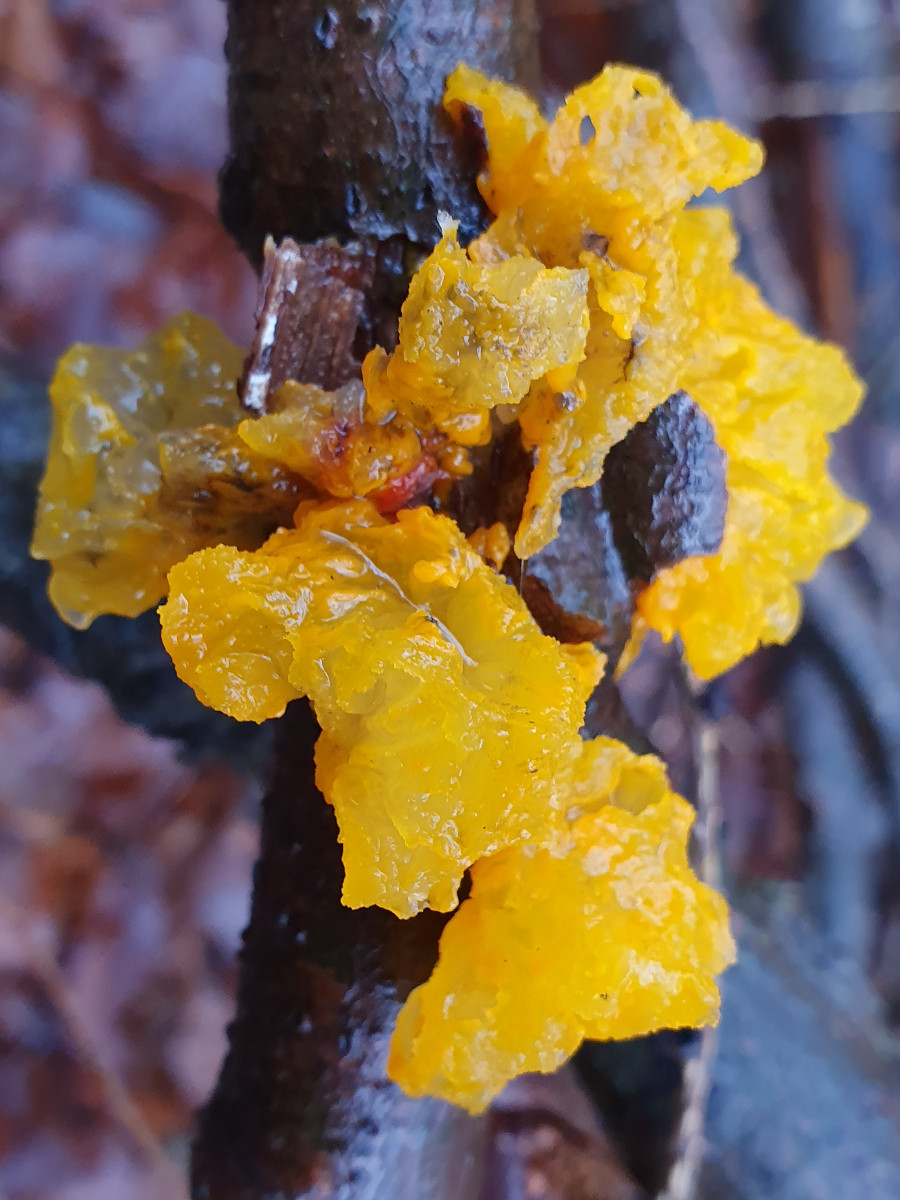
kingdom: Fungi
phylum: Basidiomycota
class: Tremellomycetes
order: Tremellales
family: Tremellaceae
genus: Tremella
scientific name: Tremella mesenterica
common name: gul bævresvamp
